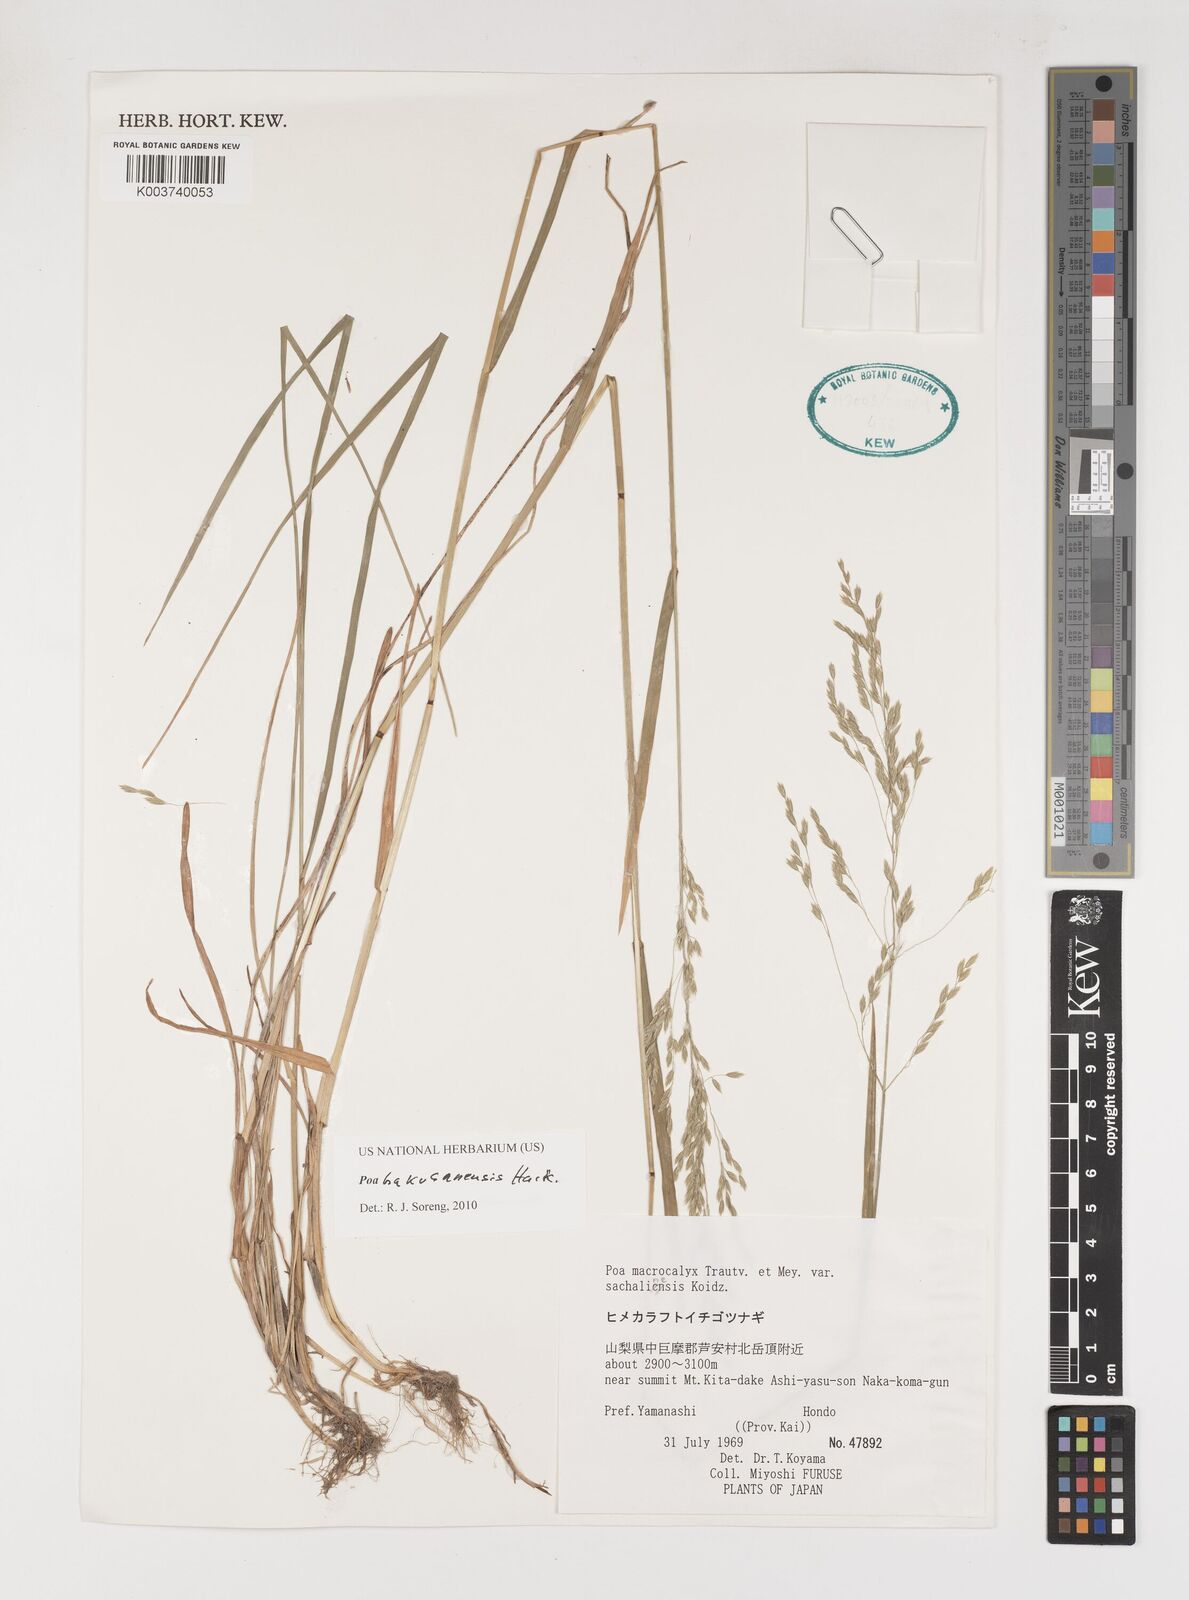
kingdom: Plantae
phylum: Tracheophyta
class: Liliopsida
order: Poales
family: Poaceae
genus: Poa
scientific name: Poa hakusanensis
